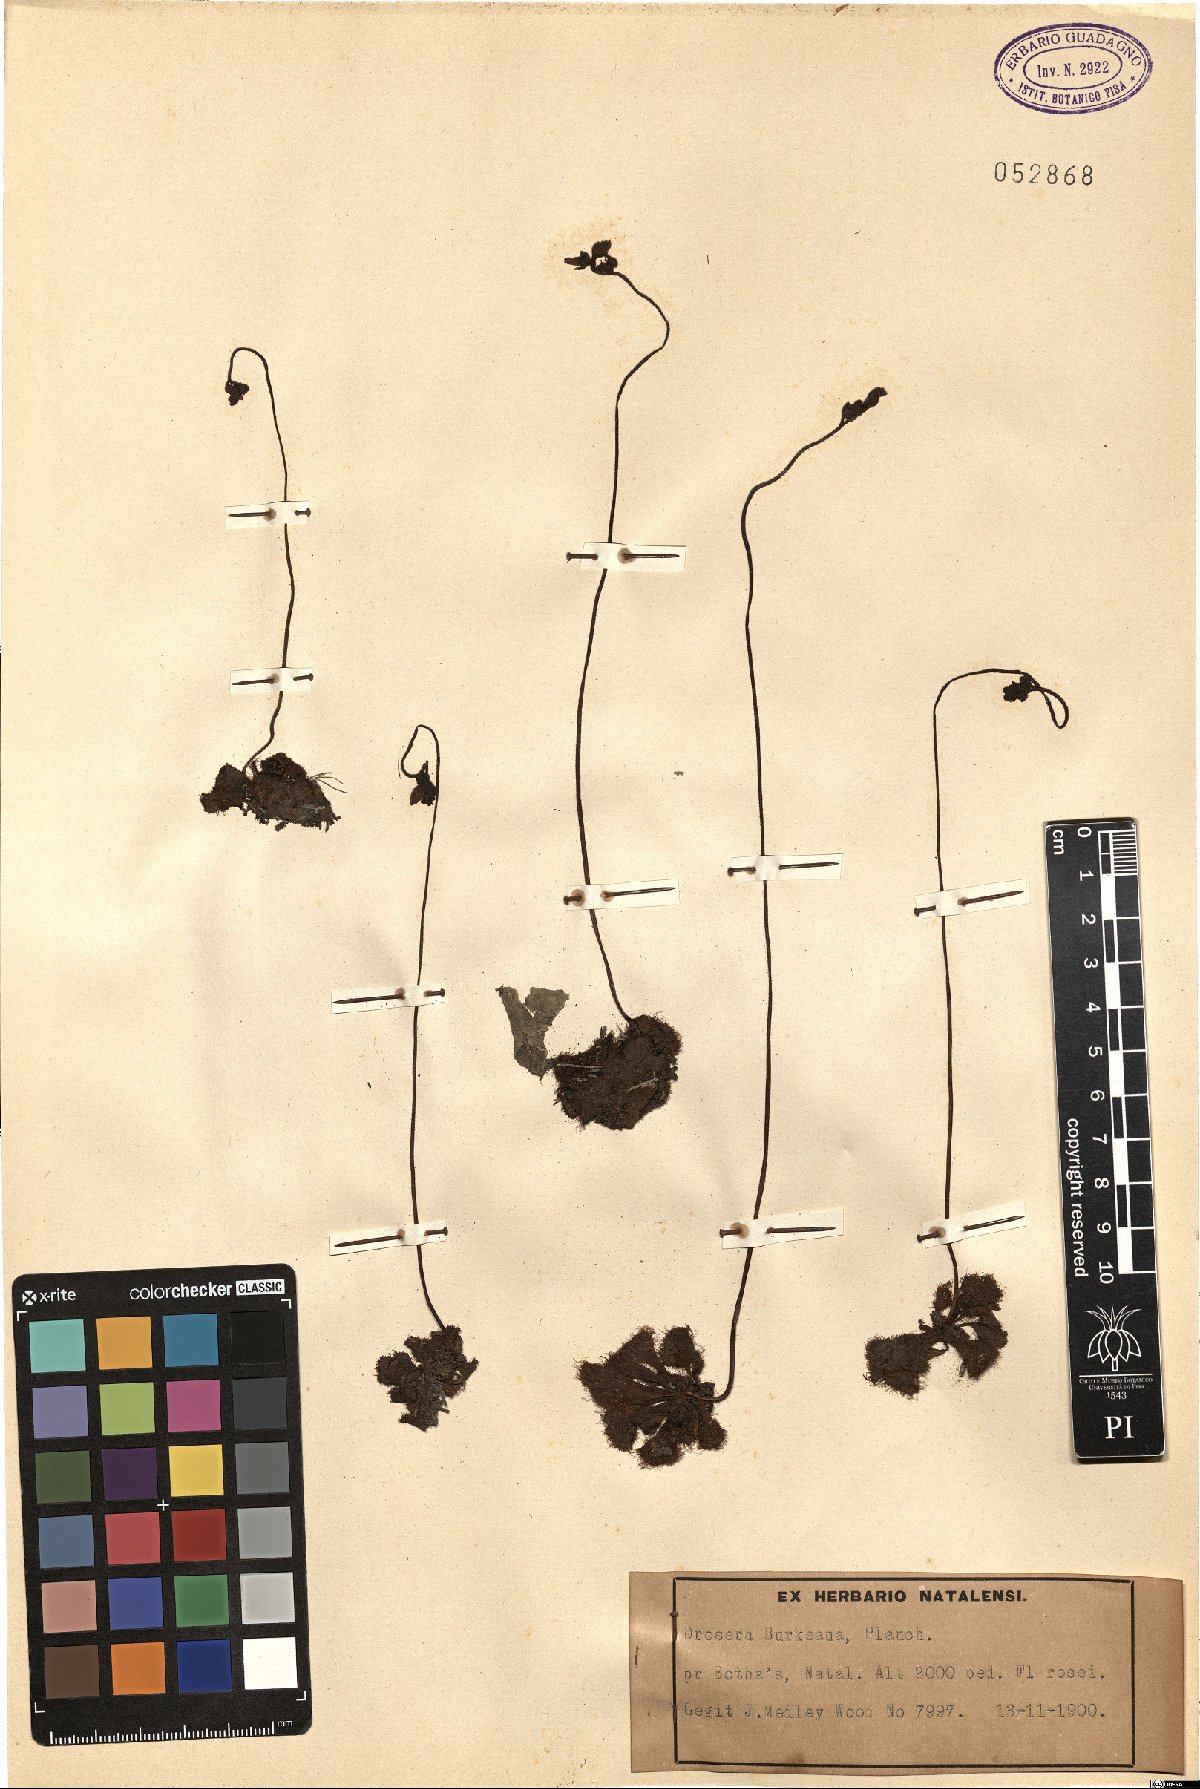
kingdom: Plantae
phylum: Tracheophyta
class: Magnoliopsida
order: Caryophyllales
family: Droseraceae
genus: Drosera
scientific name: Drosera burkeana
